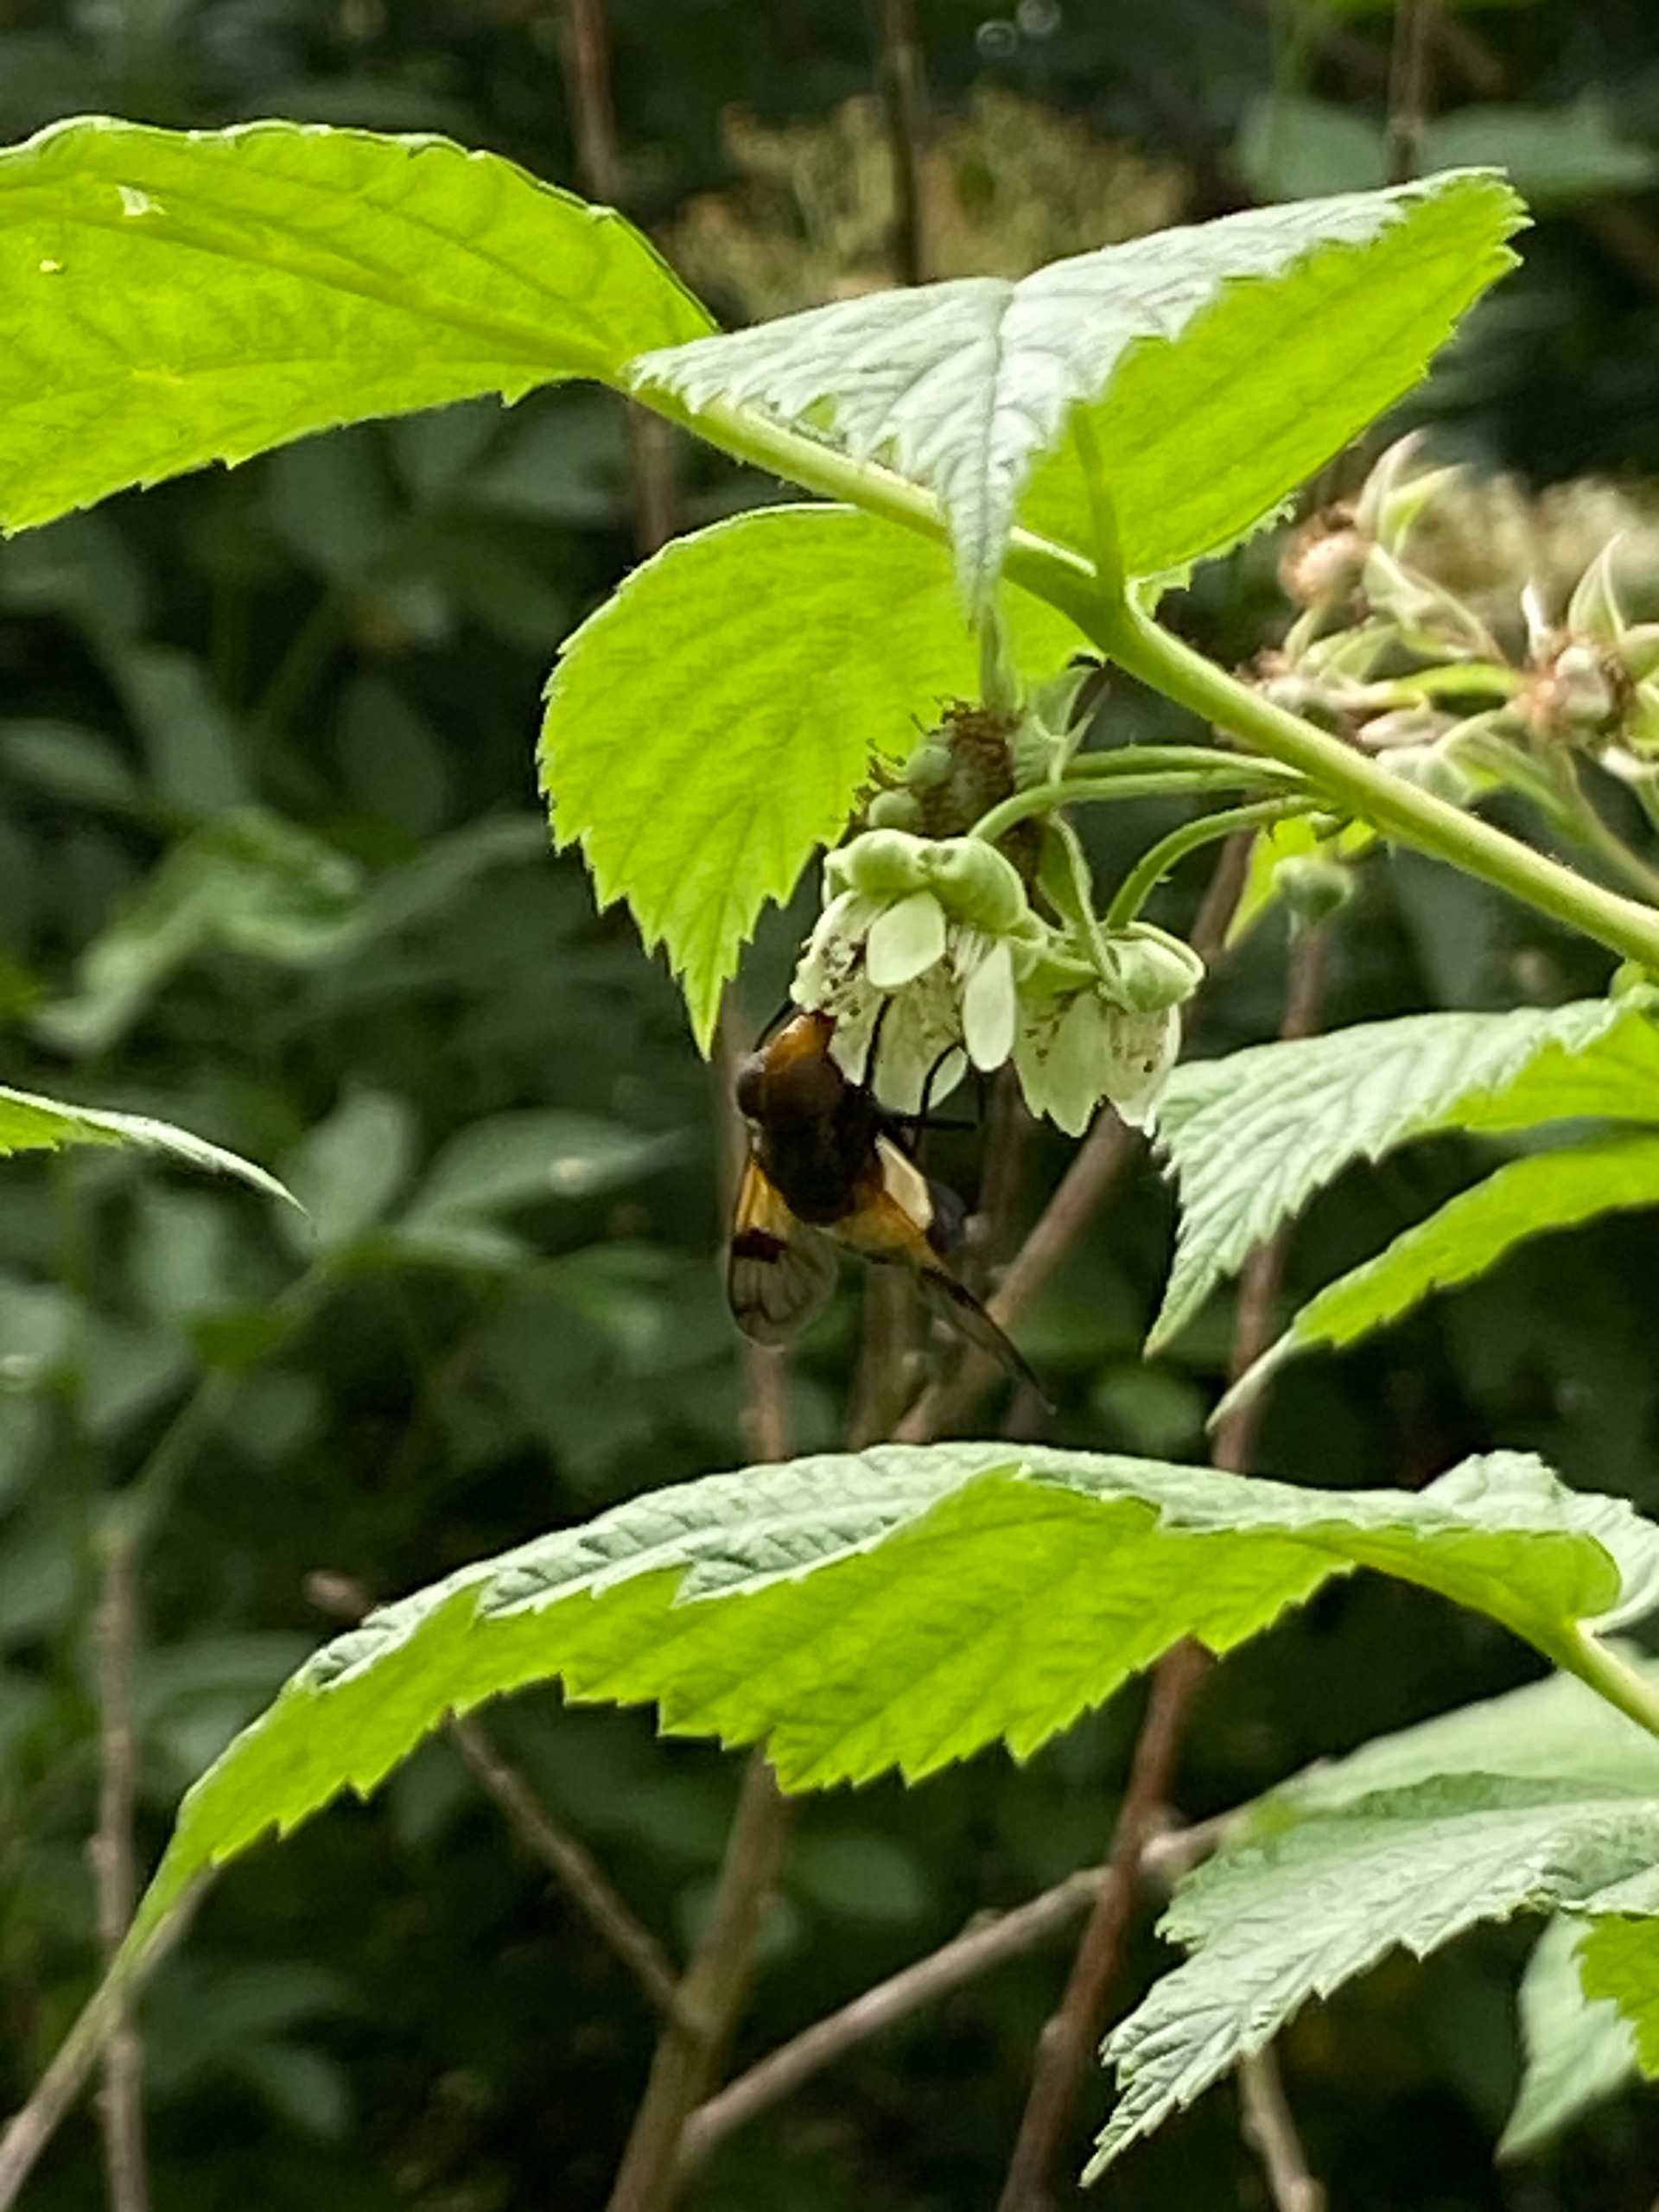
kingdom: Animalia
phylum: Arthropoda
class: Insecta
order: Diptera
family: Syrphidae
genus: Volucella
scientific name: Volucella pellucens
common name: Hvidbåndet humlesvirreflue
